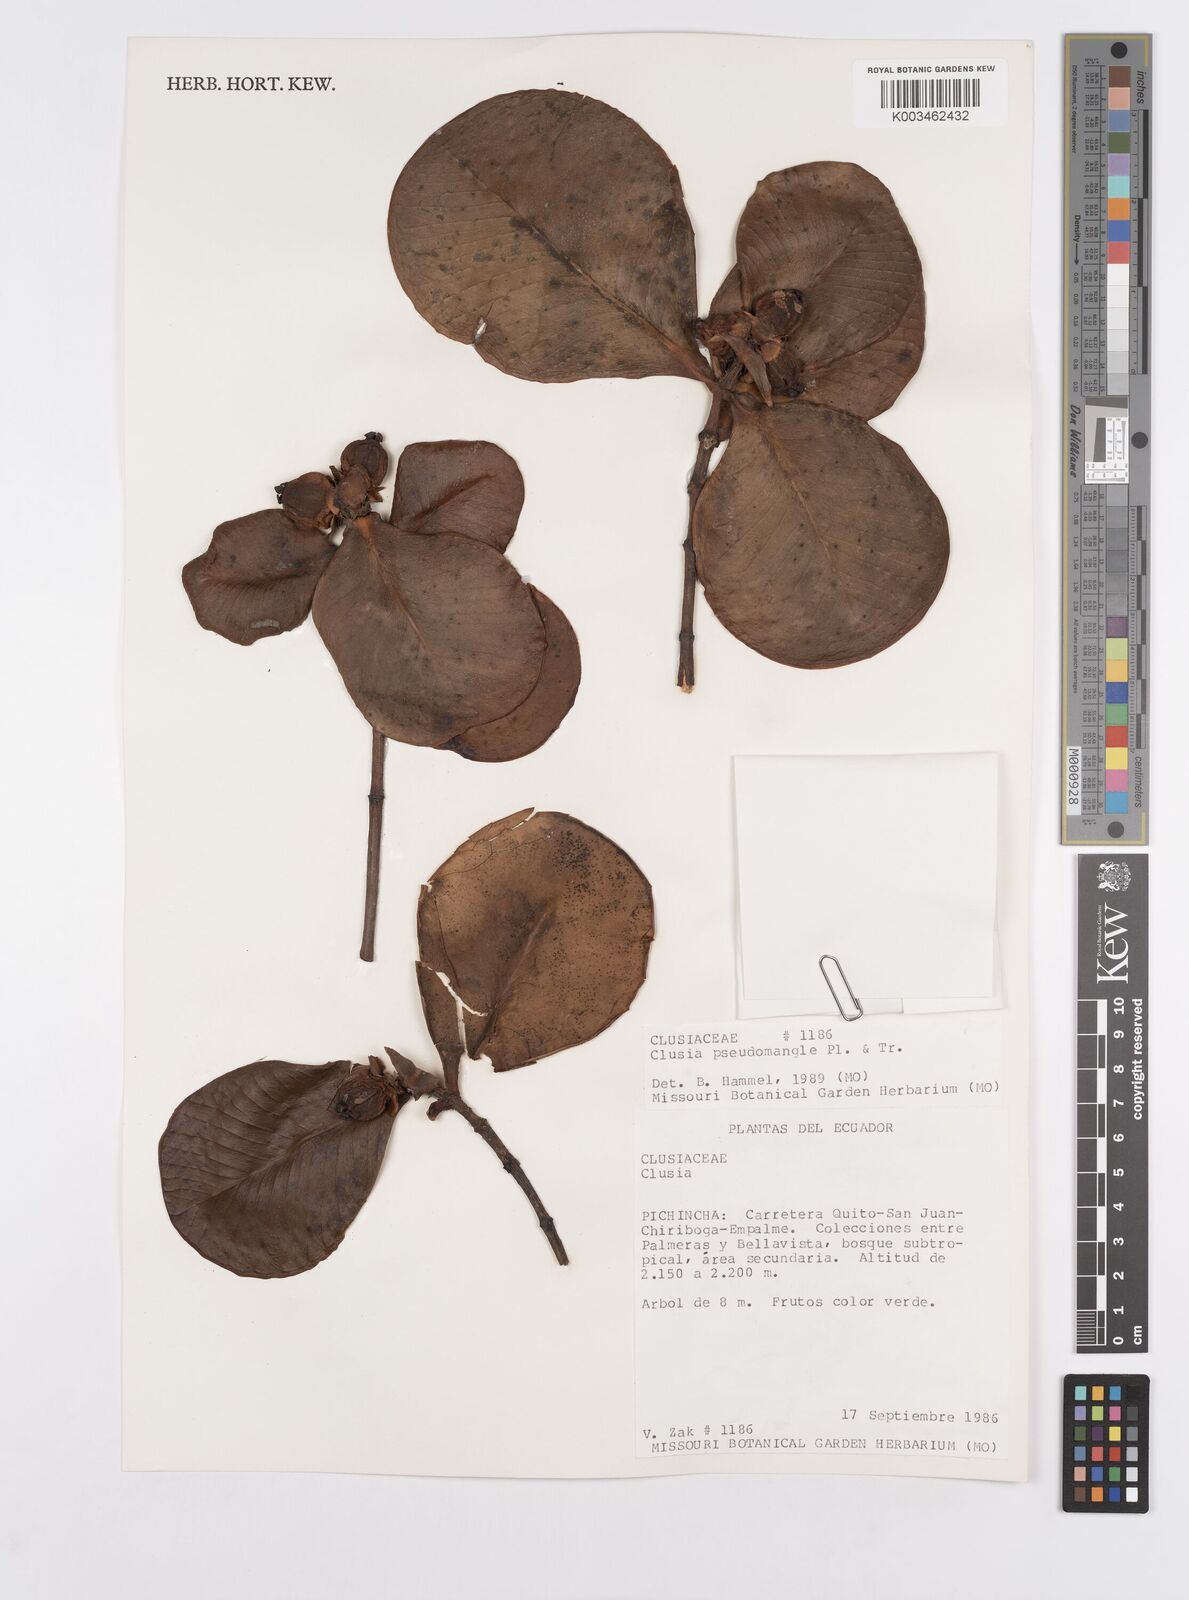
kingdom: Plantae
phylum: Tracheophyta
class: Magnoliopsida
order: Malpighiales
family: Clusiaceae
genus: Clusia
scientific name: Clusia pseudomangle
